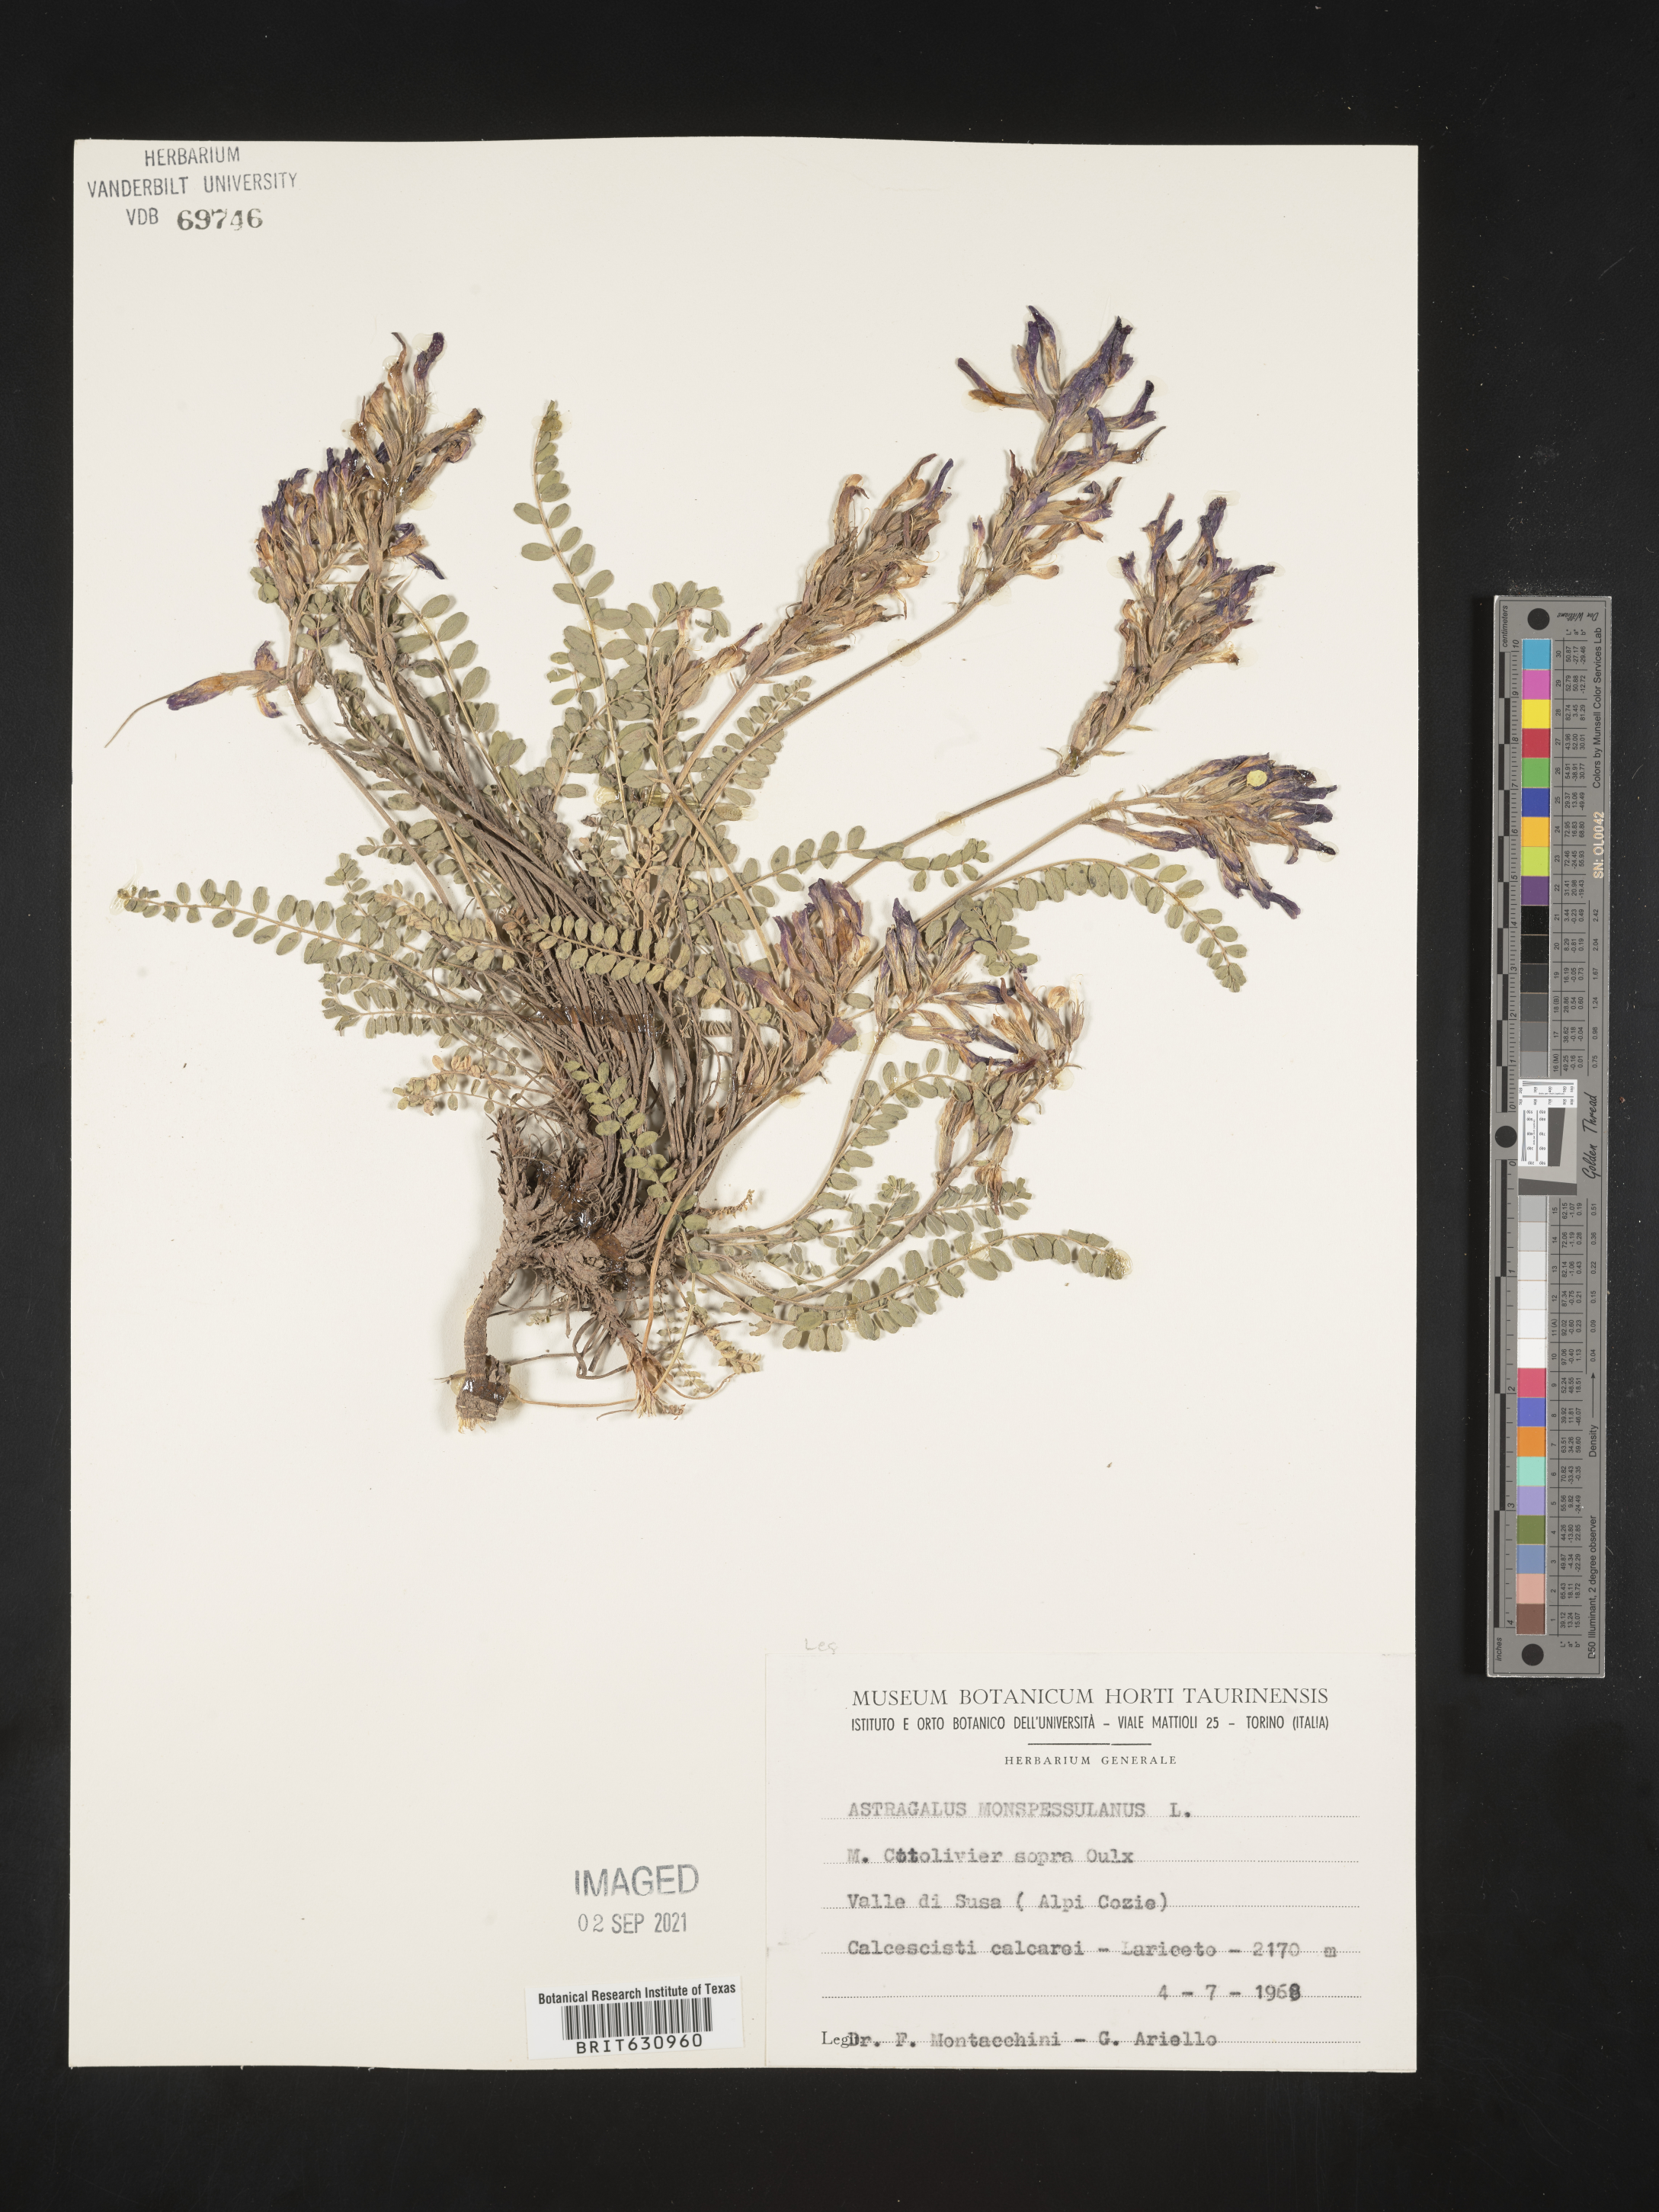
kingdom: Plantae
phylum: Tracheophyta
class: Magnoliopsida
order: Fabales
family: Fabaceae
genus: Astragalus
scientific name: Astragalus
